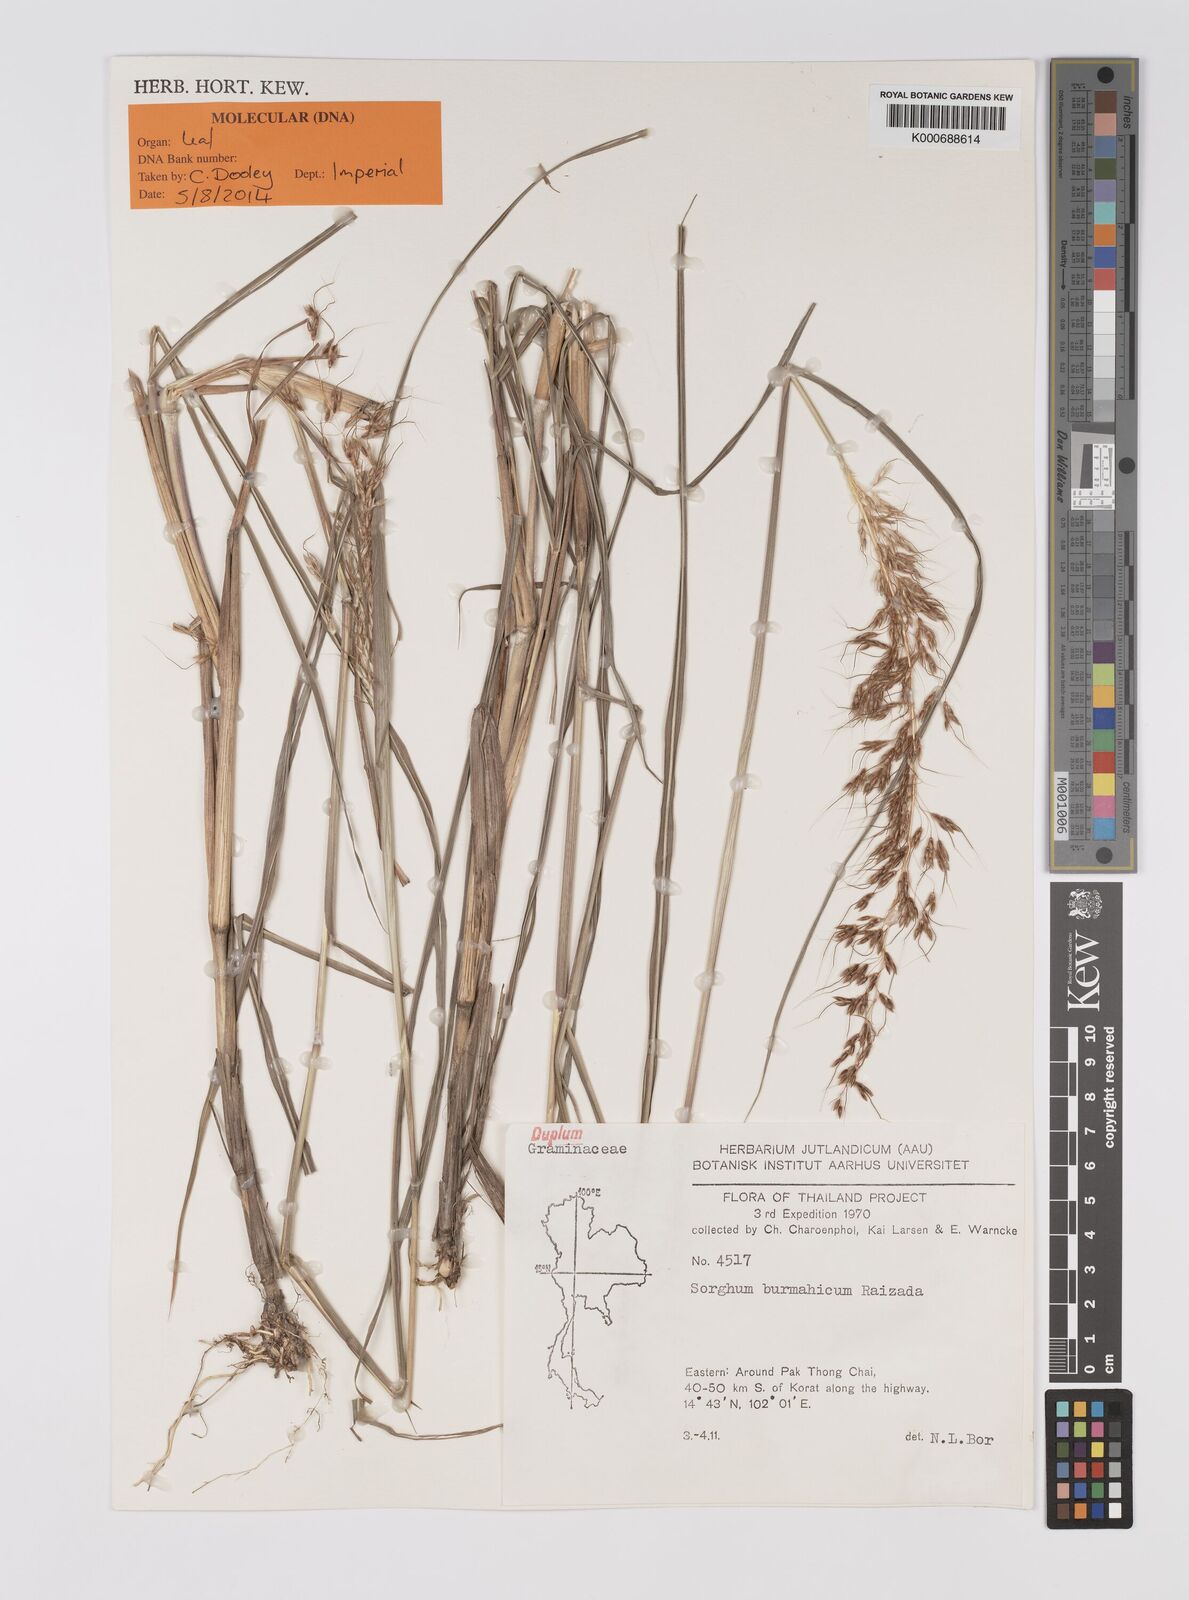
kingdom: Plantae
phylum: Tracheophyta
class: Liliopsida
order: Poales
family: Poaceae
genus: Sorghum
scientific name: Sorghum burmahicum
